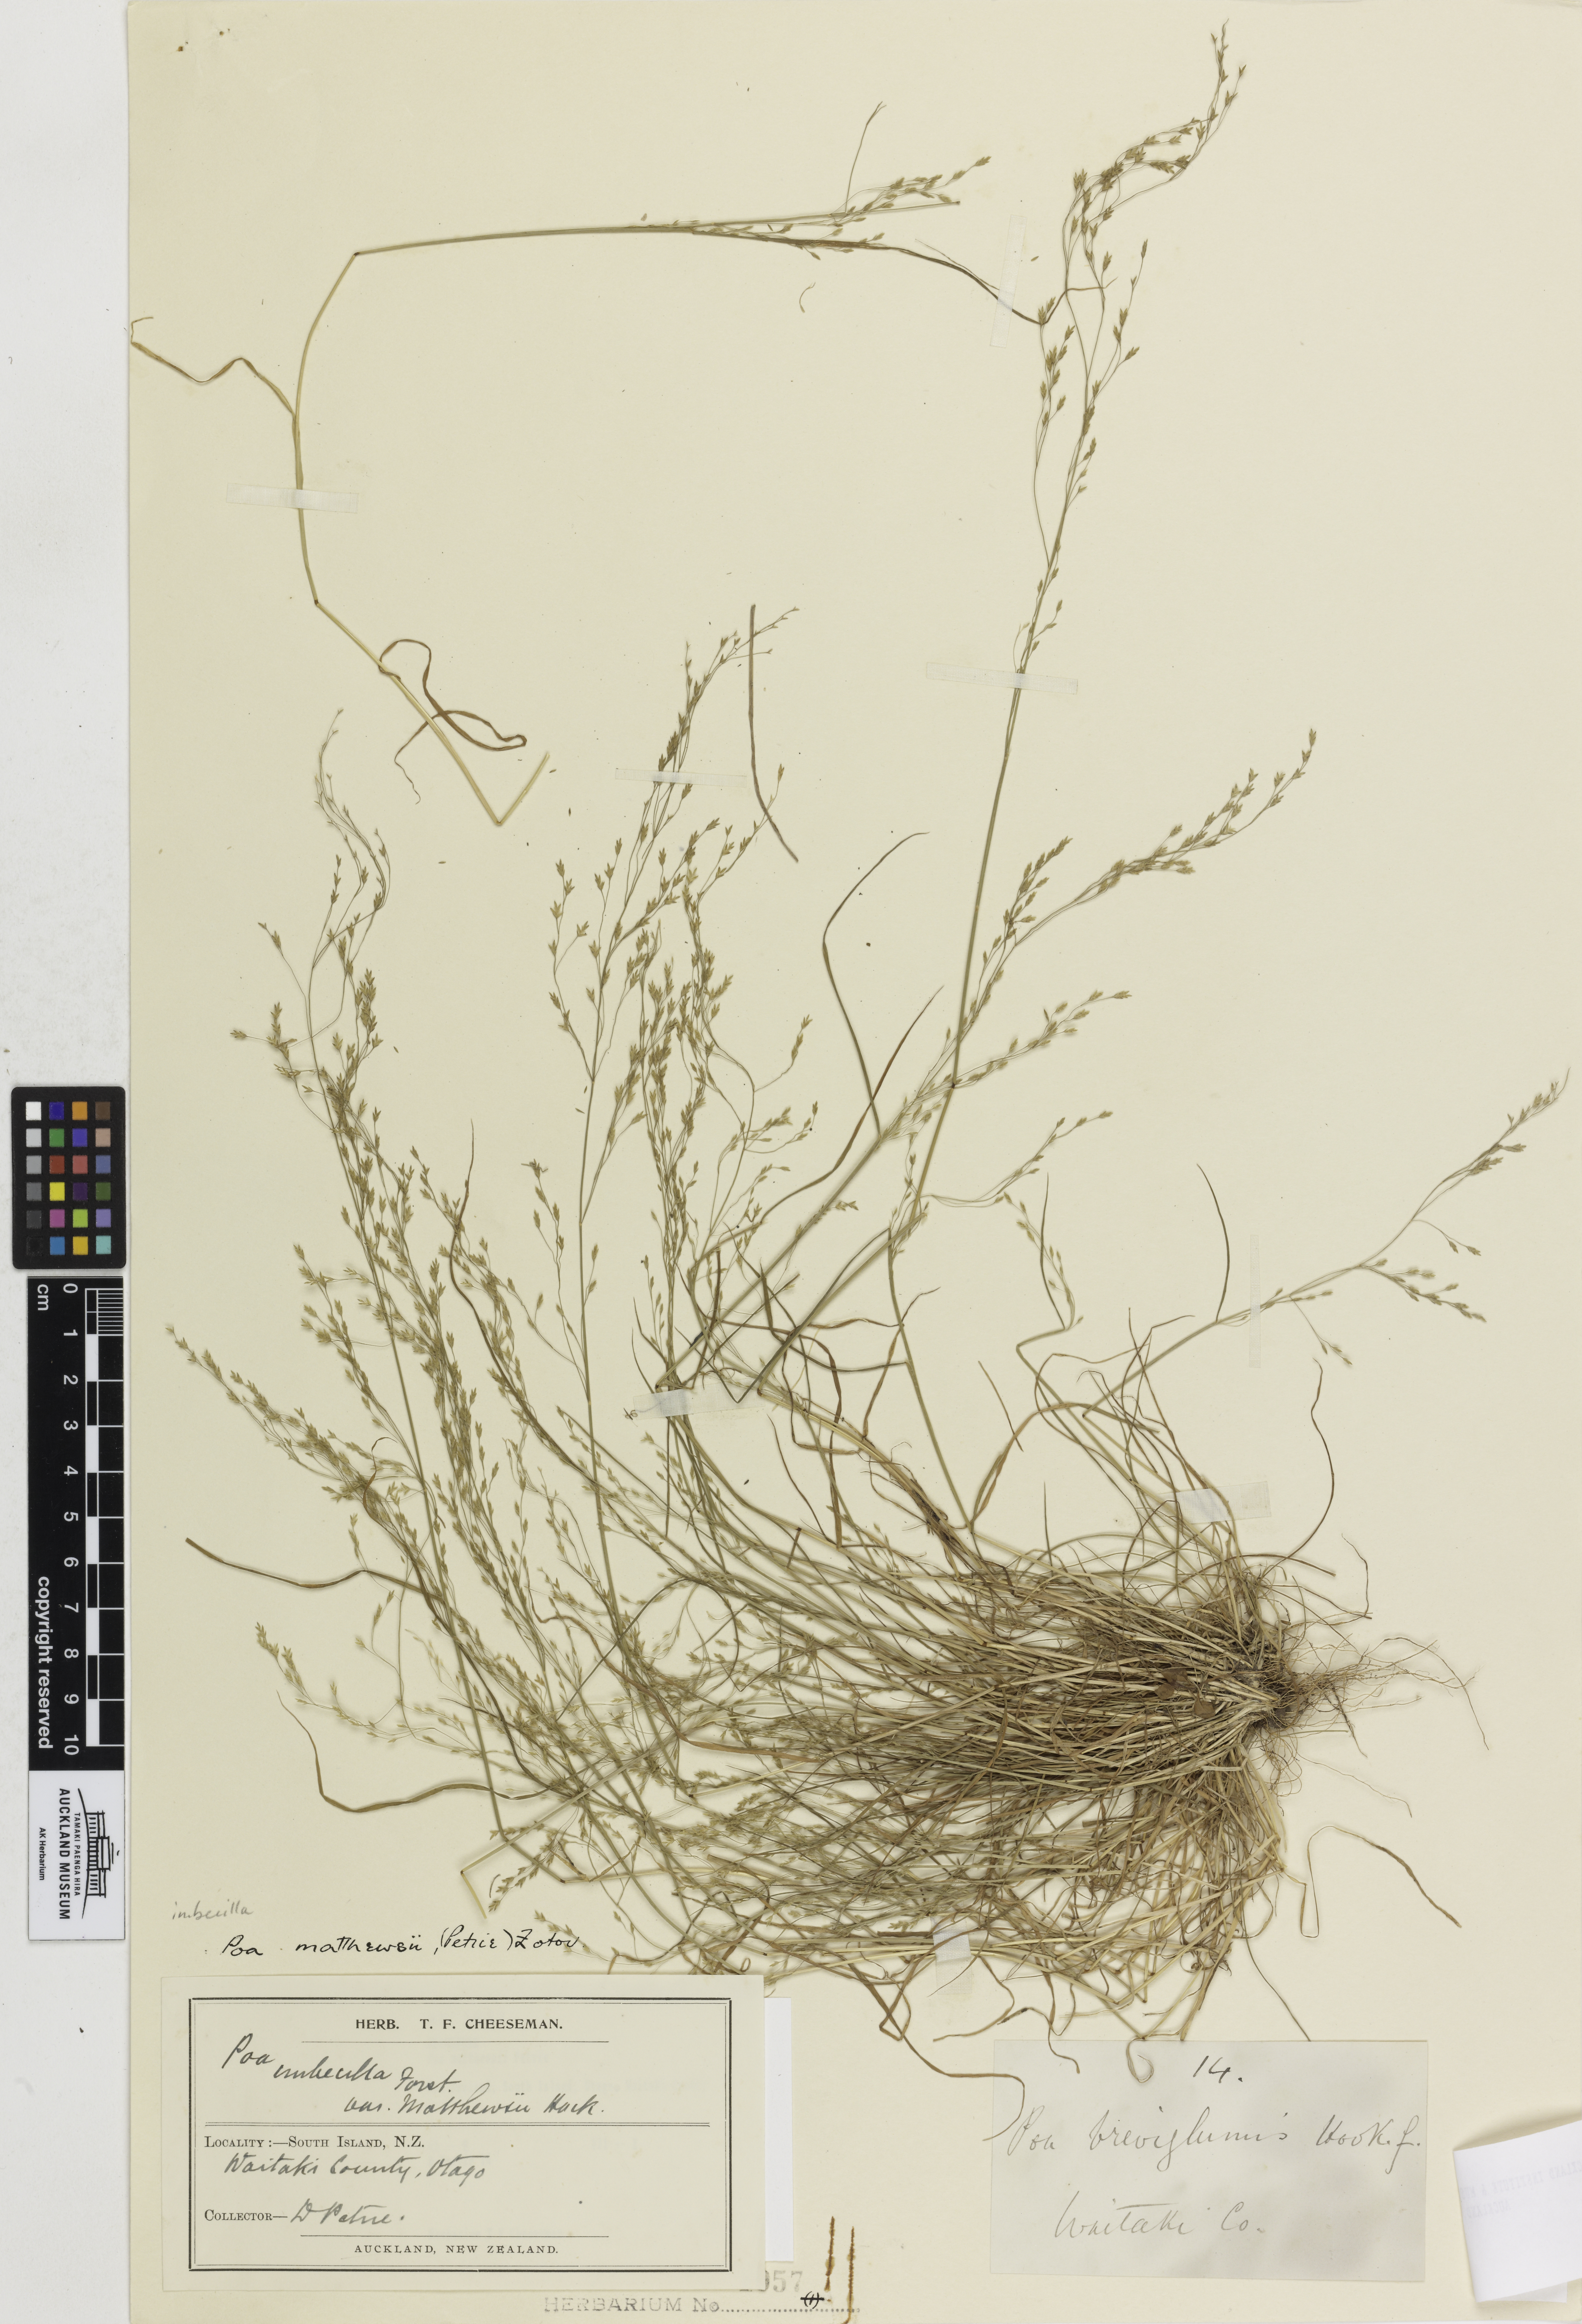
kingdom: Plantae
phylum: Tracheophyta
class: Liliopsida
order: Poales
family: Poaceae
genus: Poa
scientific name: Poa matthewsii
